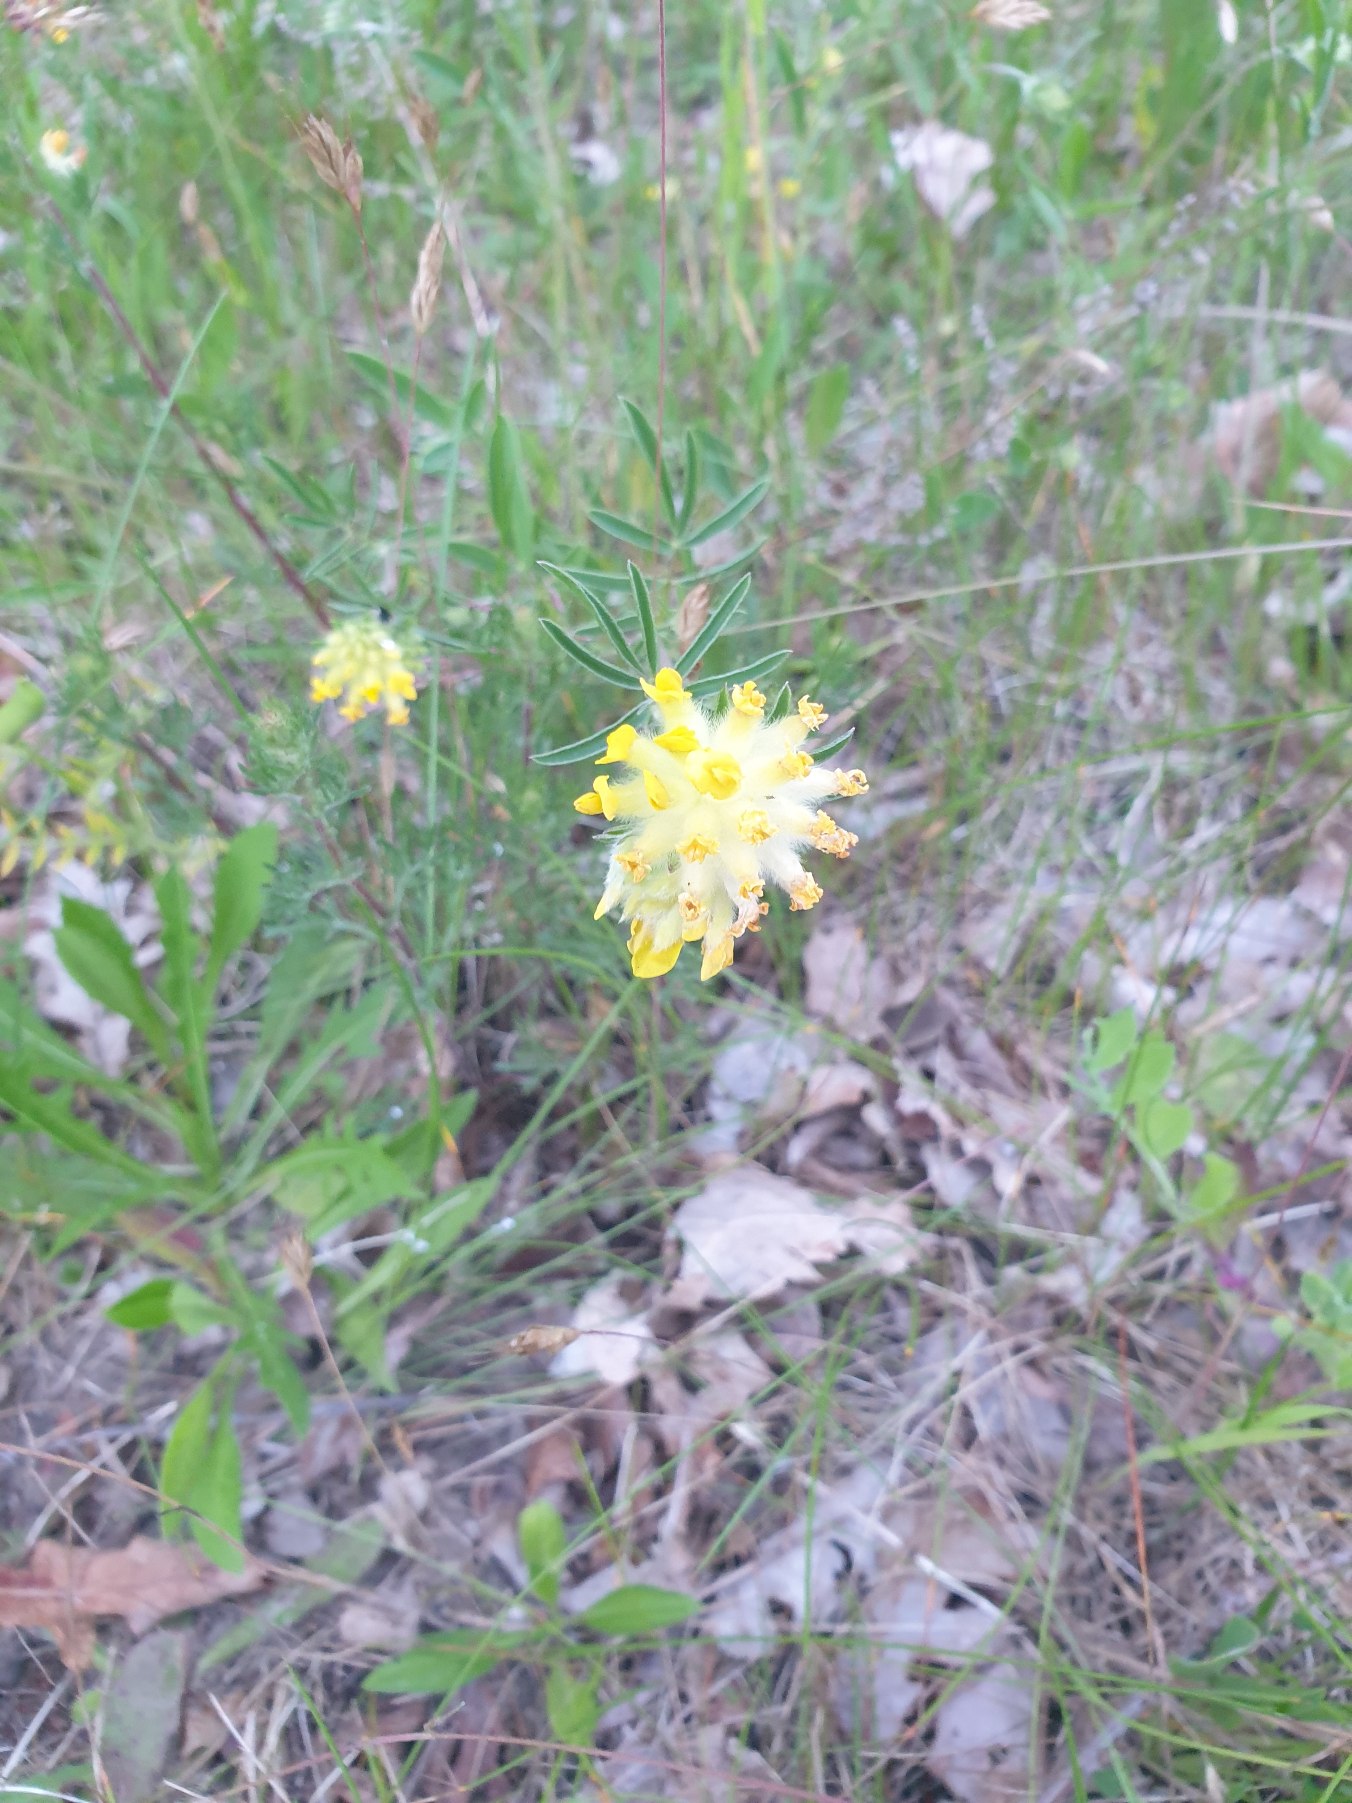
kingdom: Plantae
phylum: Tracheophyta
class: Magnoliopsida
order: Fabales
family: Fabaceae
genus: Anthyllis
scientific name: Anthyllis vulneraria
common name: Rundbælg
